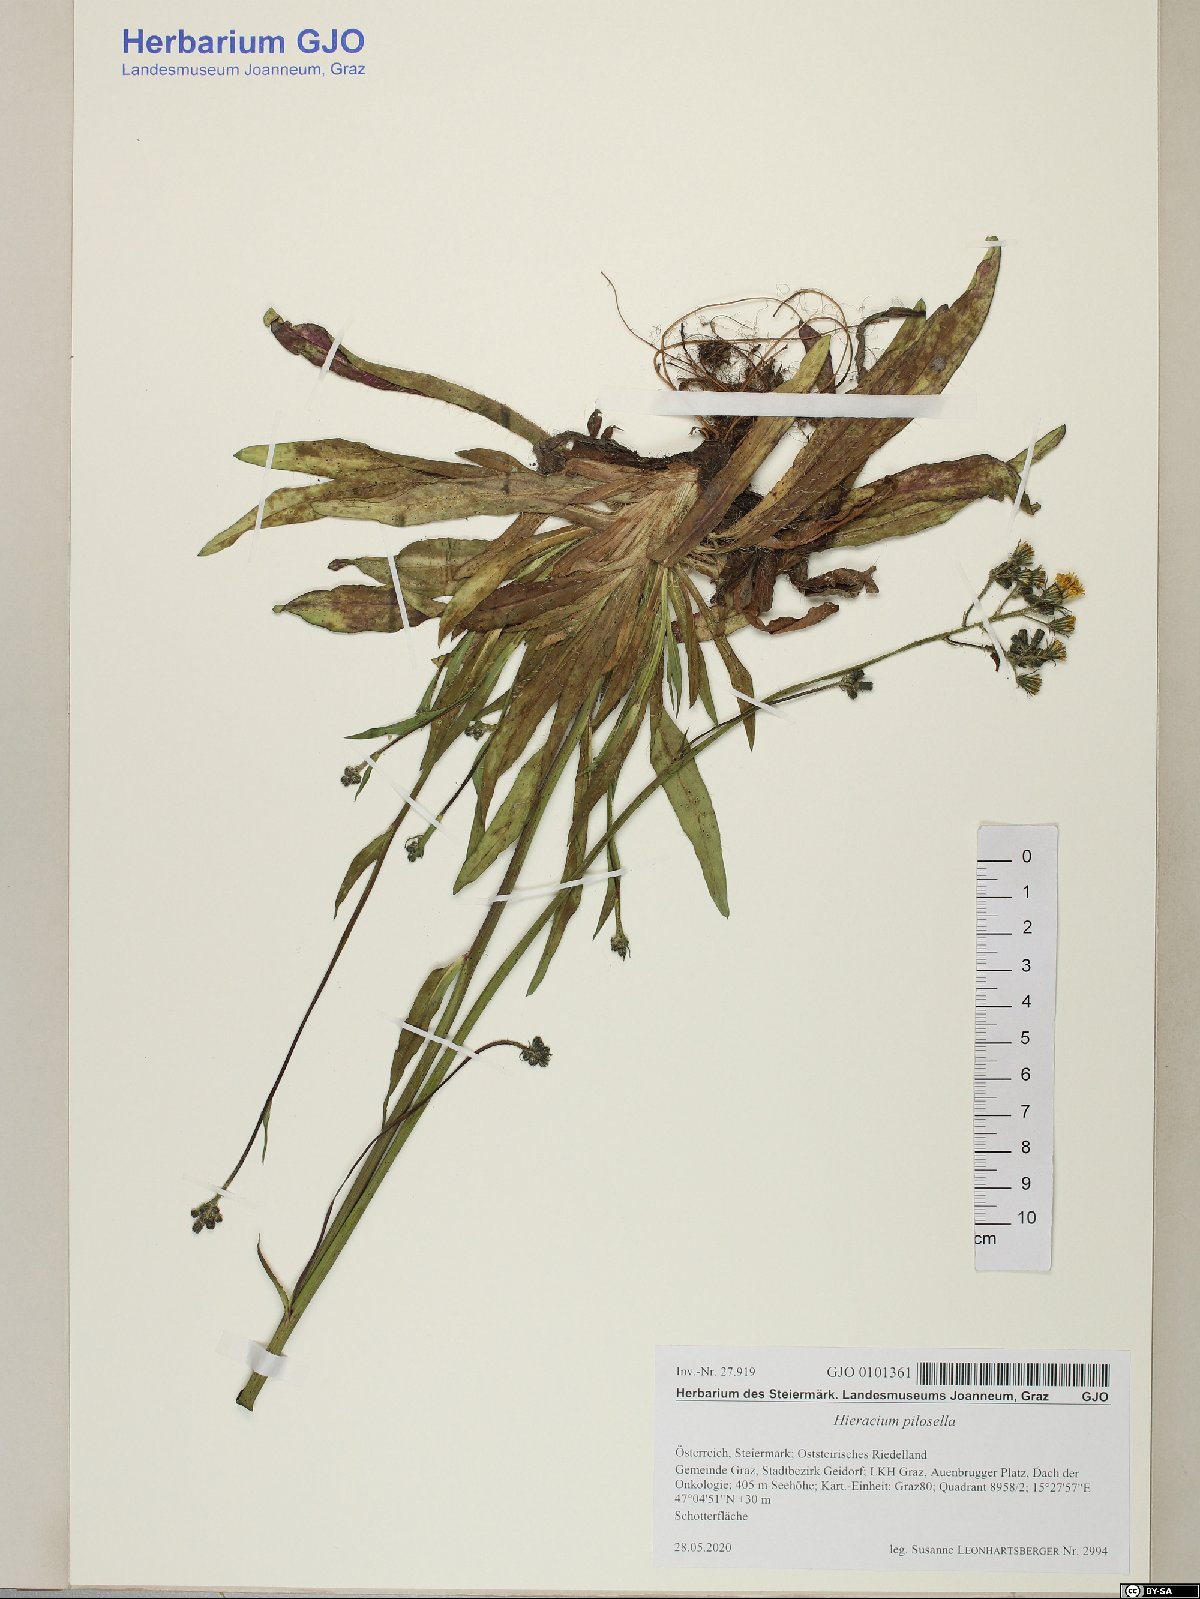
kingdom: Plantae
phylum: Tracheophyta
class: Magnoliopsida
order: Asterales
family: Asteraceae
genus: Pilosella
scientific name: Pilosella officinarum
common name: Mouse-ear hawkweed
